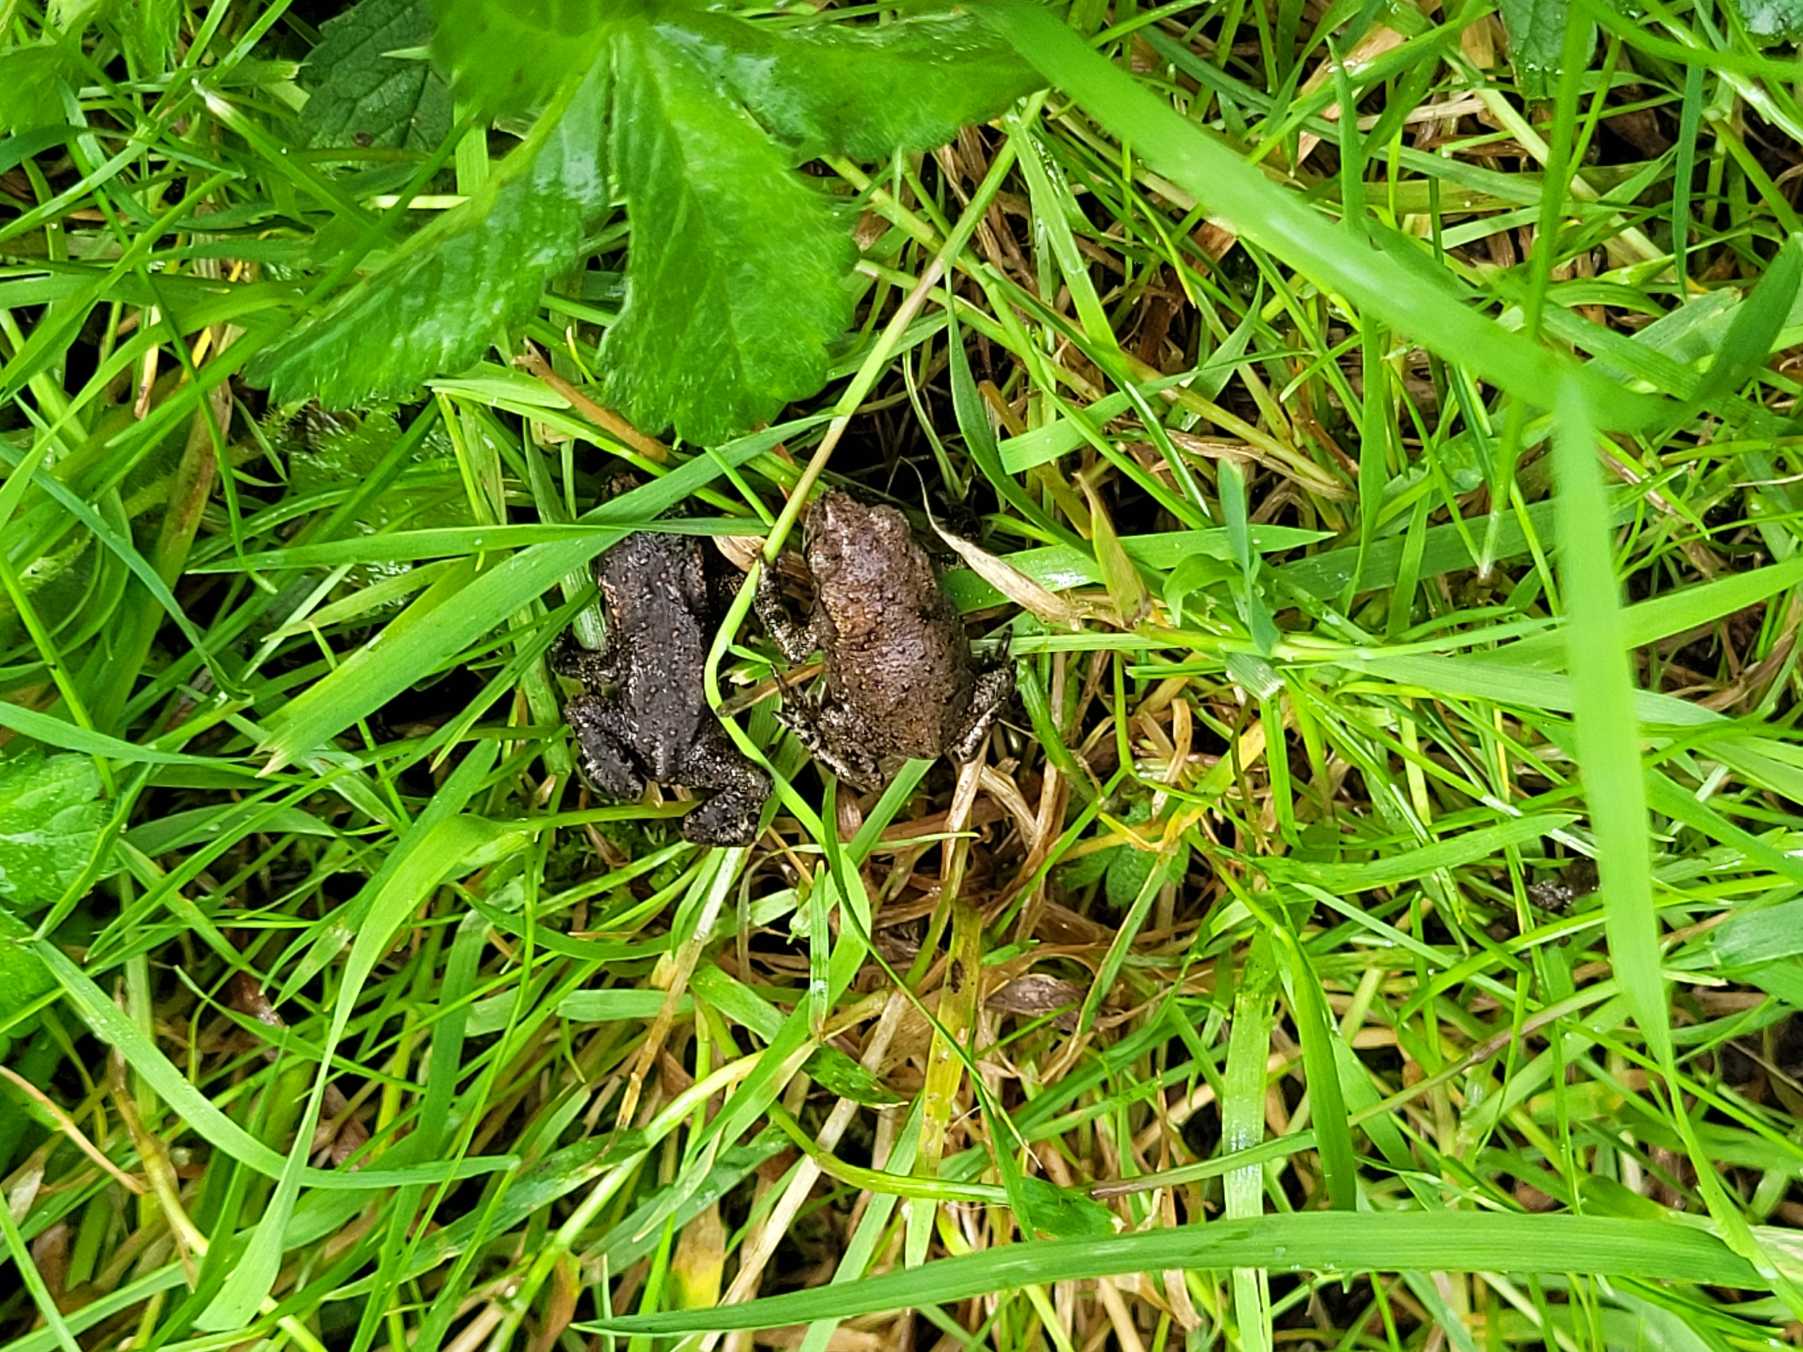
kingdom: Animalia
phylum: Chordata
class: Amphibia
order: Anura
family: Bufonidae
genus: Bufo
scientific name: Bufo bufo
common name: Skrubtudse
